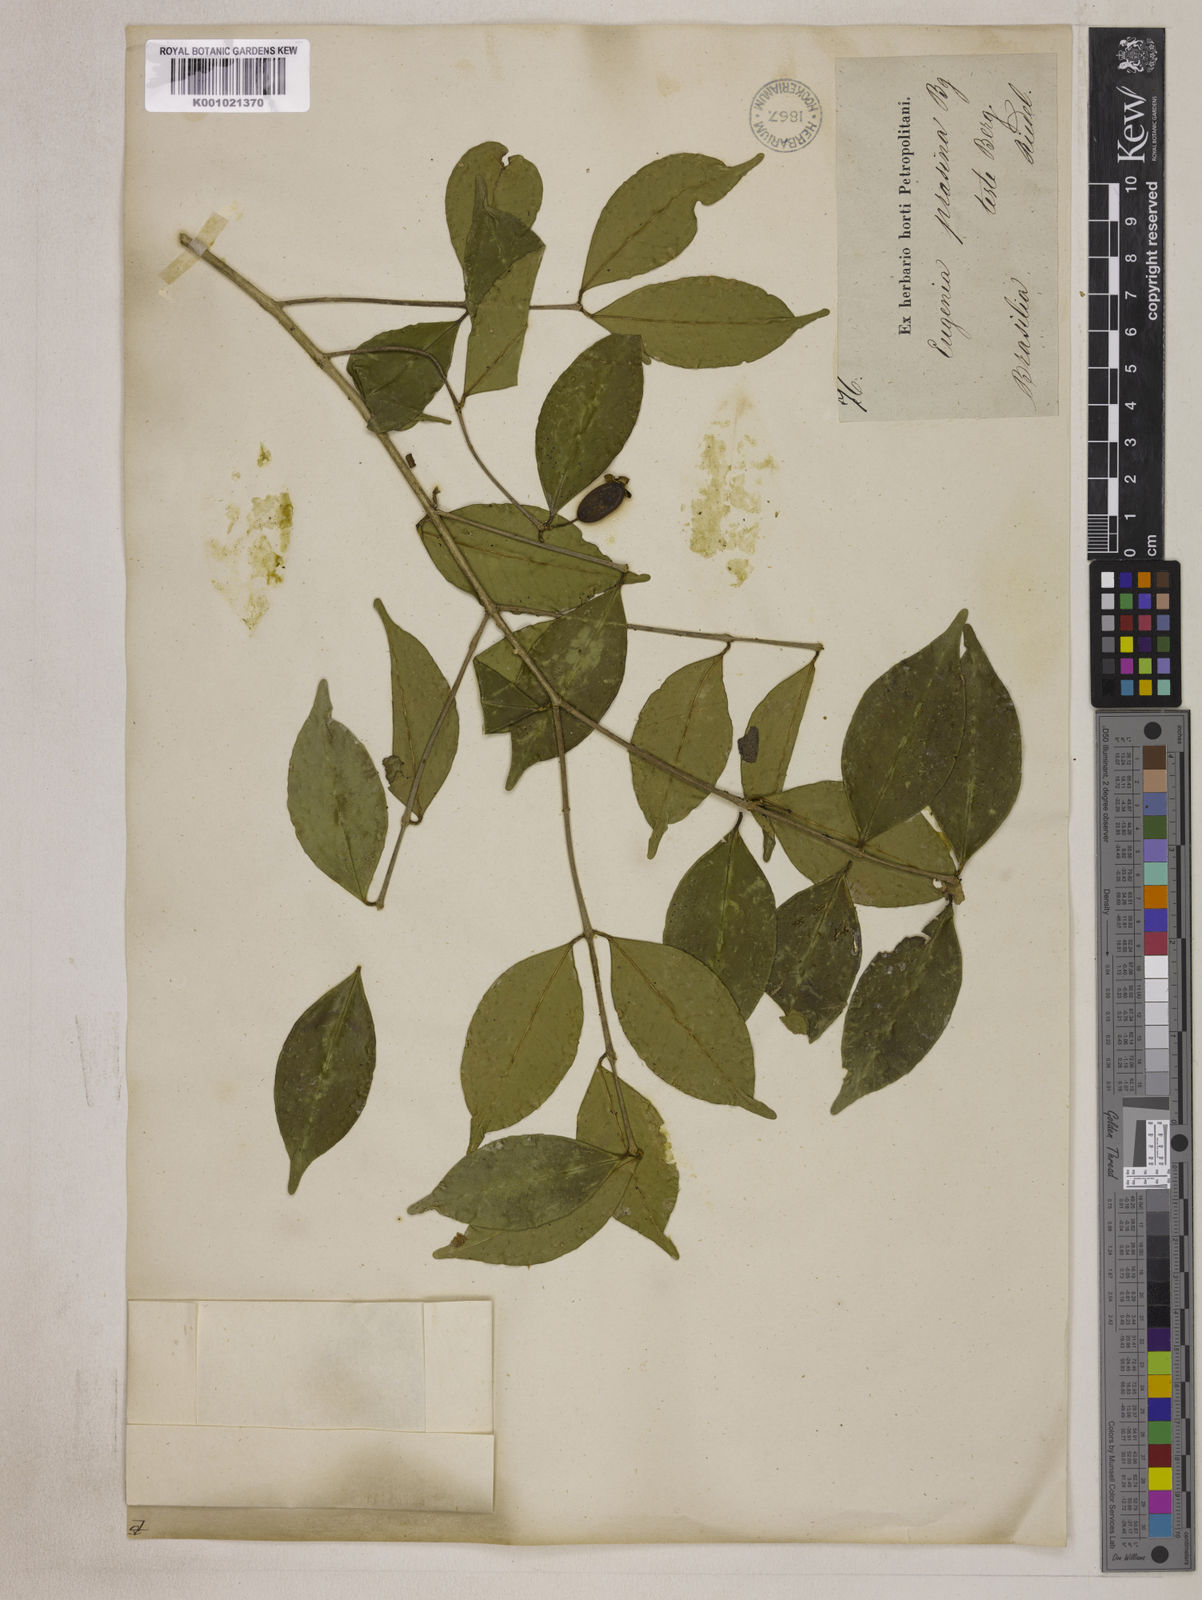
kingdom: Plantae
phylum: Tracheophyta
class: Magnoliopsida
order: Myrtales
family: Myrtaceae
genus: Eugenia
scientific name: Eugenia prasina
